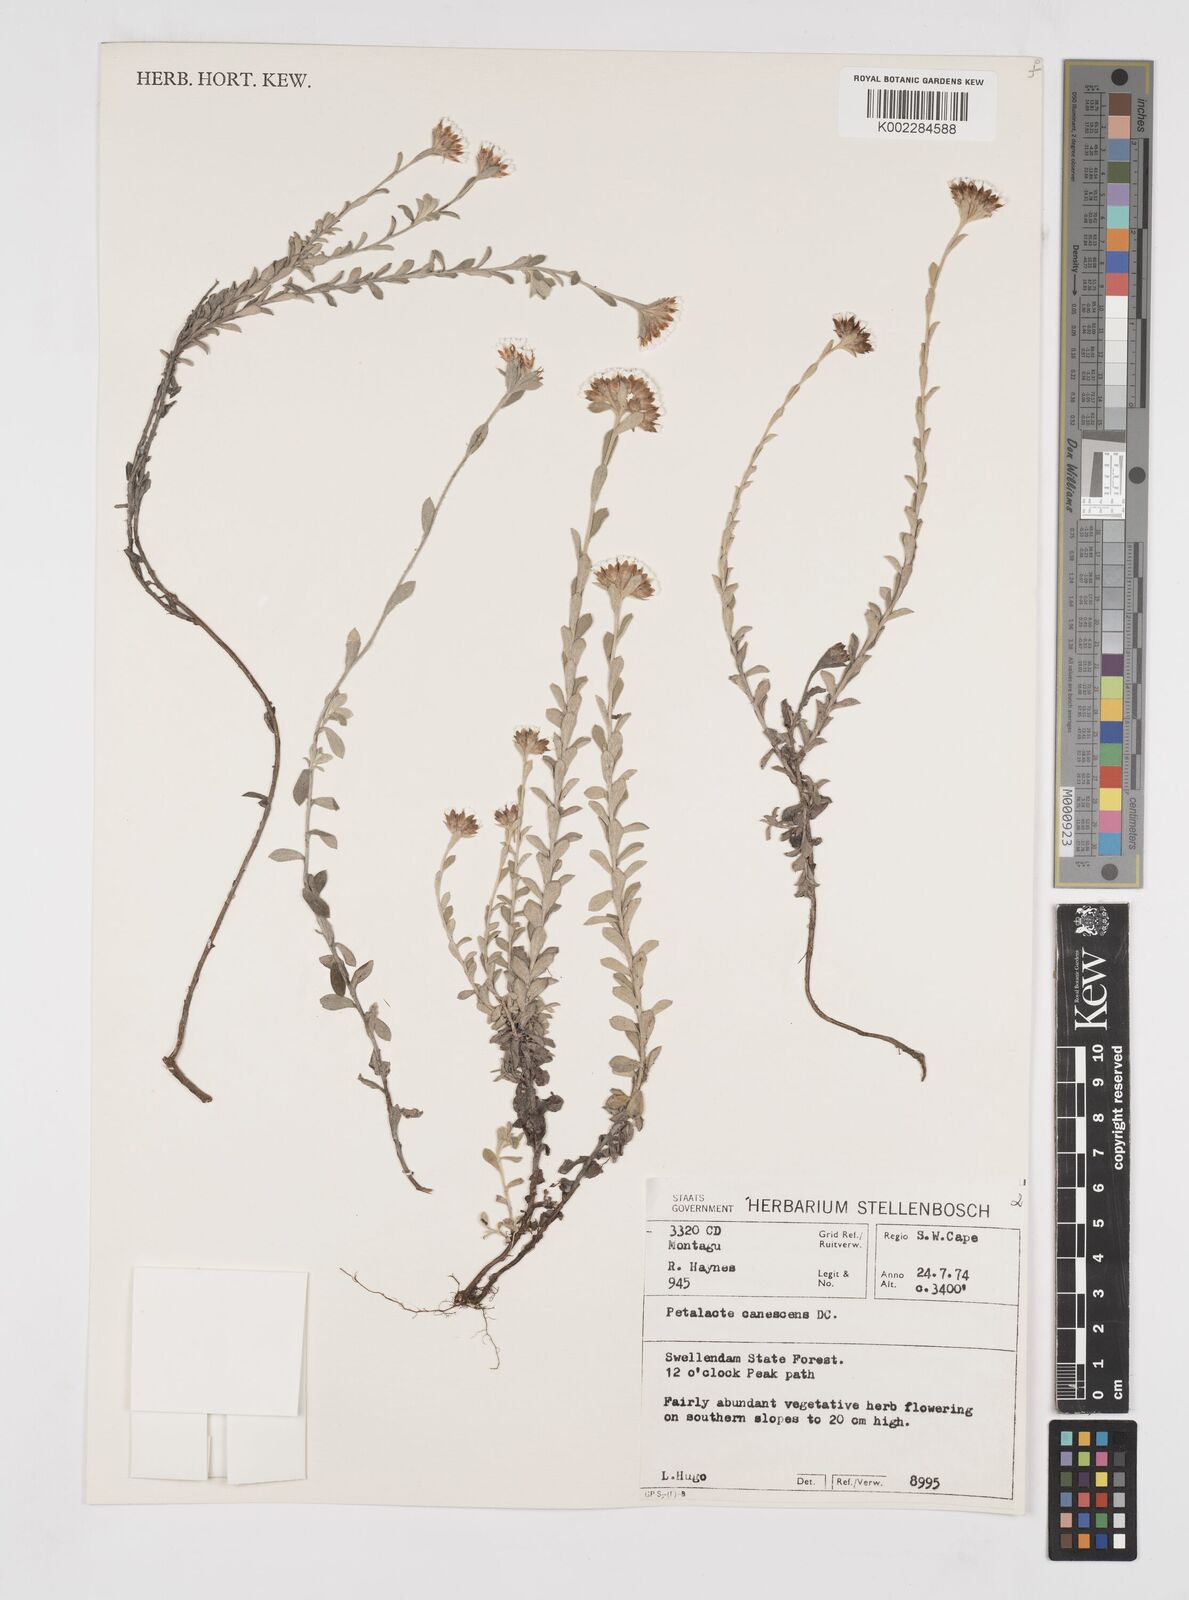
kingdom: Plantae
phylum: Tracheophyta
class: Magnoliopsida
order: Asterales
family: Asteraceae
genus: Langebergia
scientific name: Langebergia canescens
